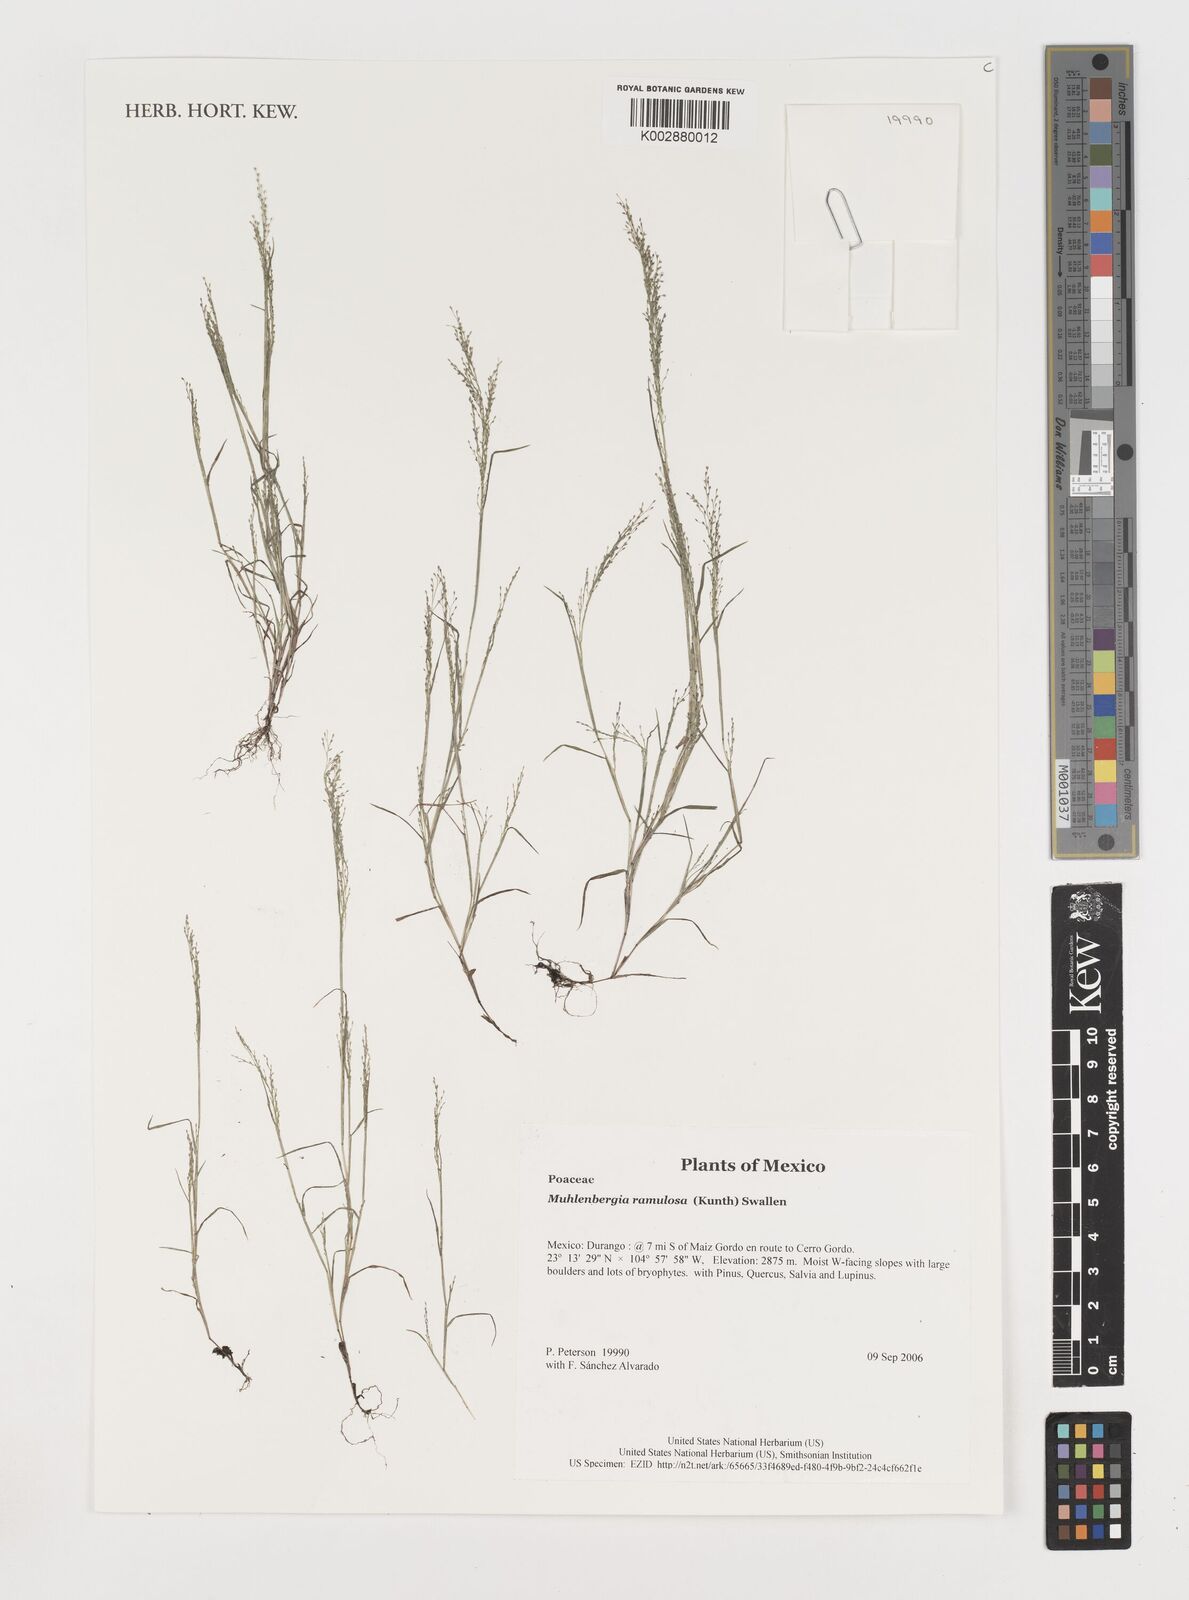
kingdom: Plantae
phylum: Tracheophyta
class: Liliopsida
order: Poales
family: Poaceae
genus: Muhlenbergia
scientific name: Muhlenbergia ramulosa
